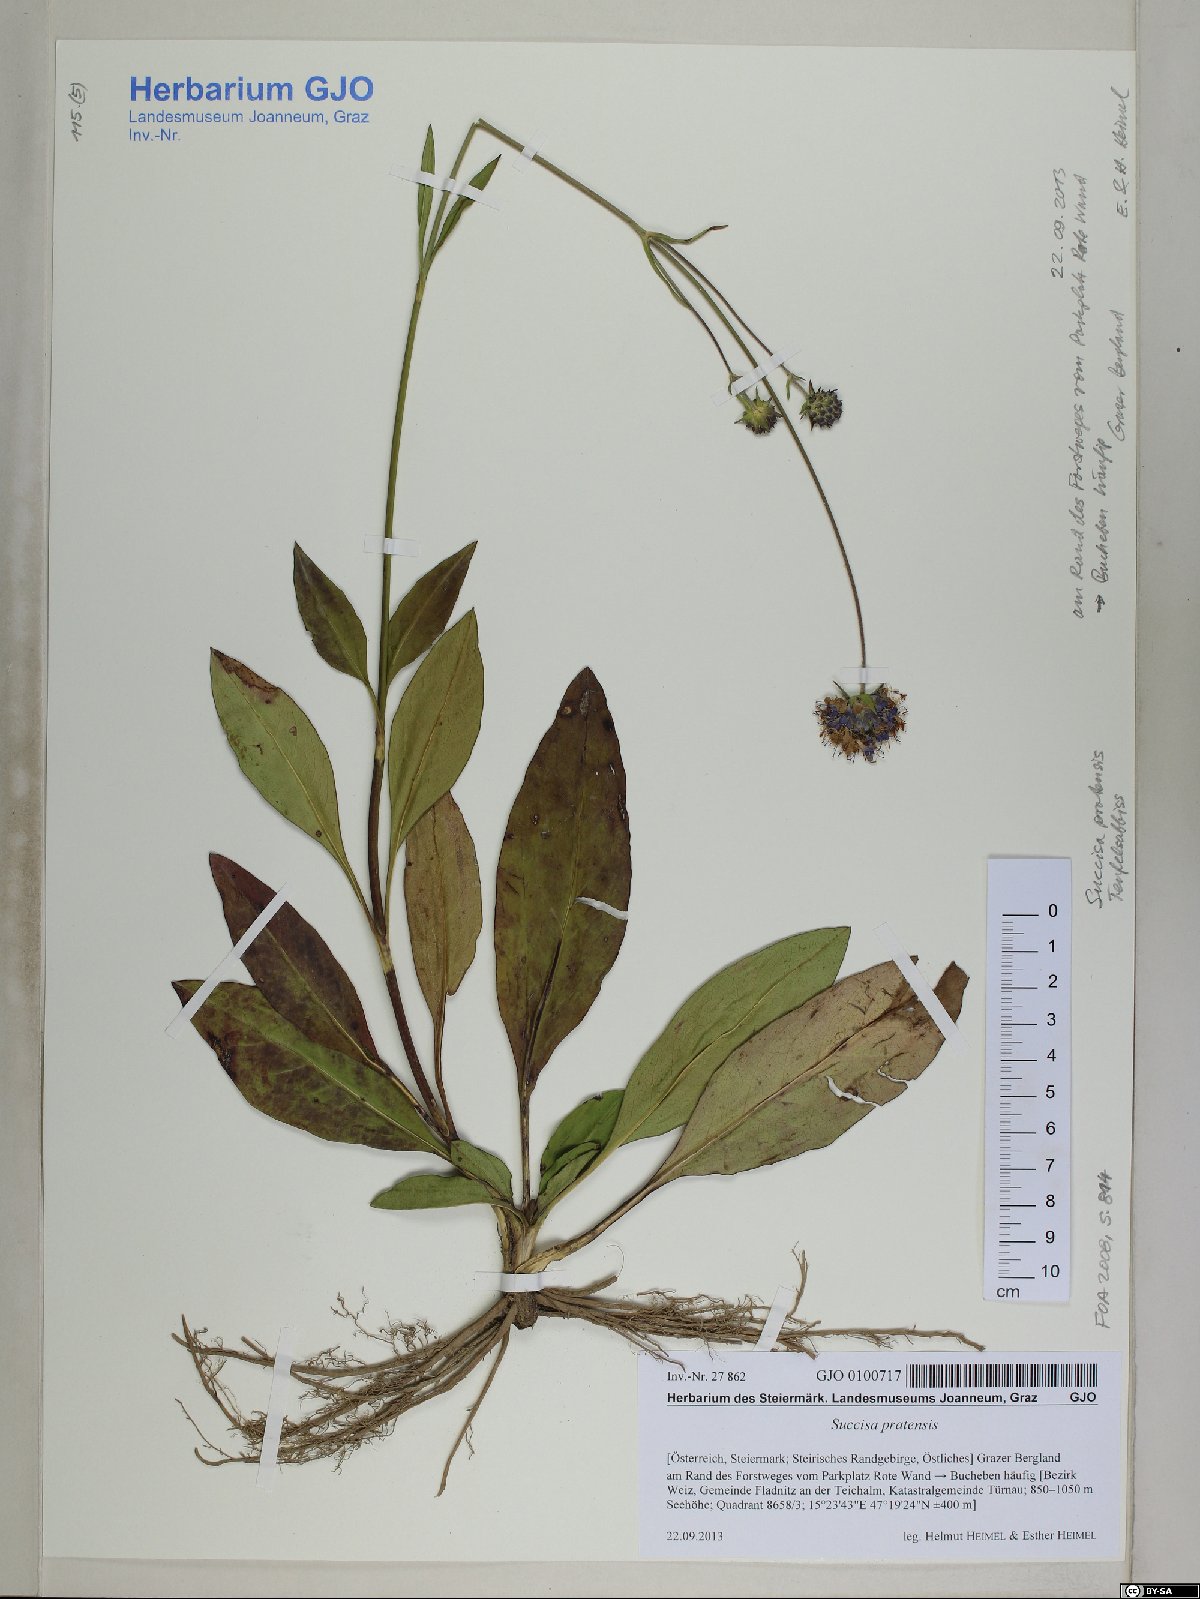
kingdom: Plantae
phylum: Tracheophyta
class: Magnoliopsida
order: Dipsacales
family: Caprifoliaceae
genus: Succisa
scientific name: Succisa pratensis
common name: Devil's-bit
